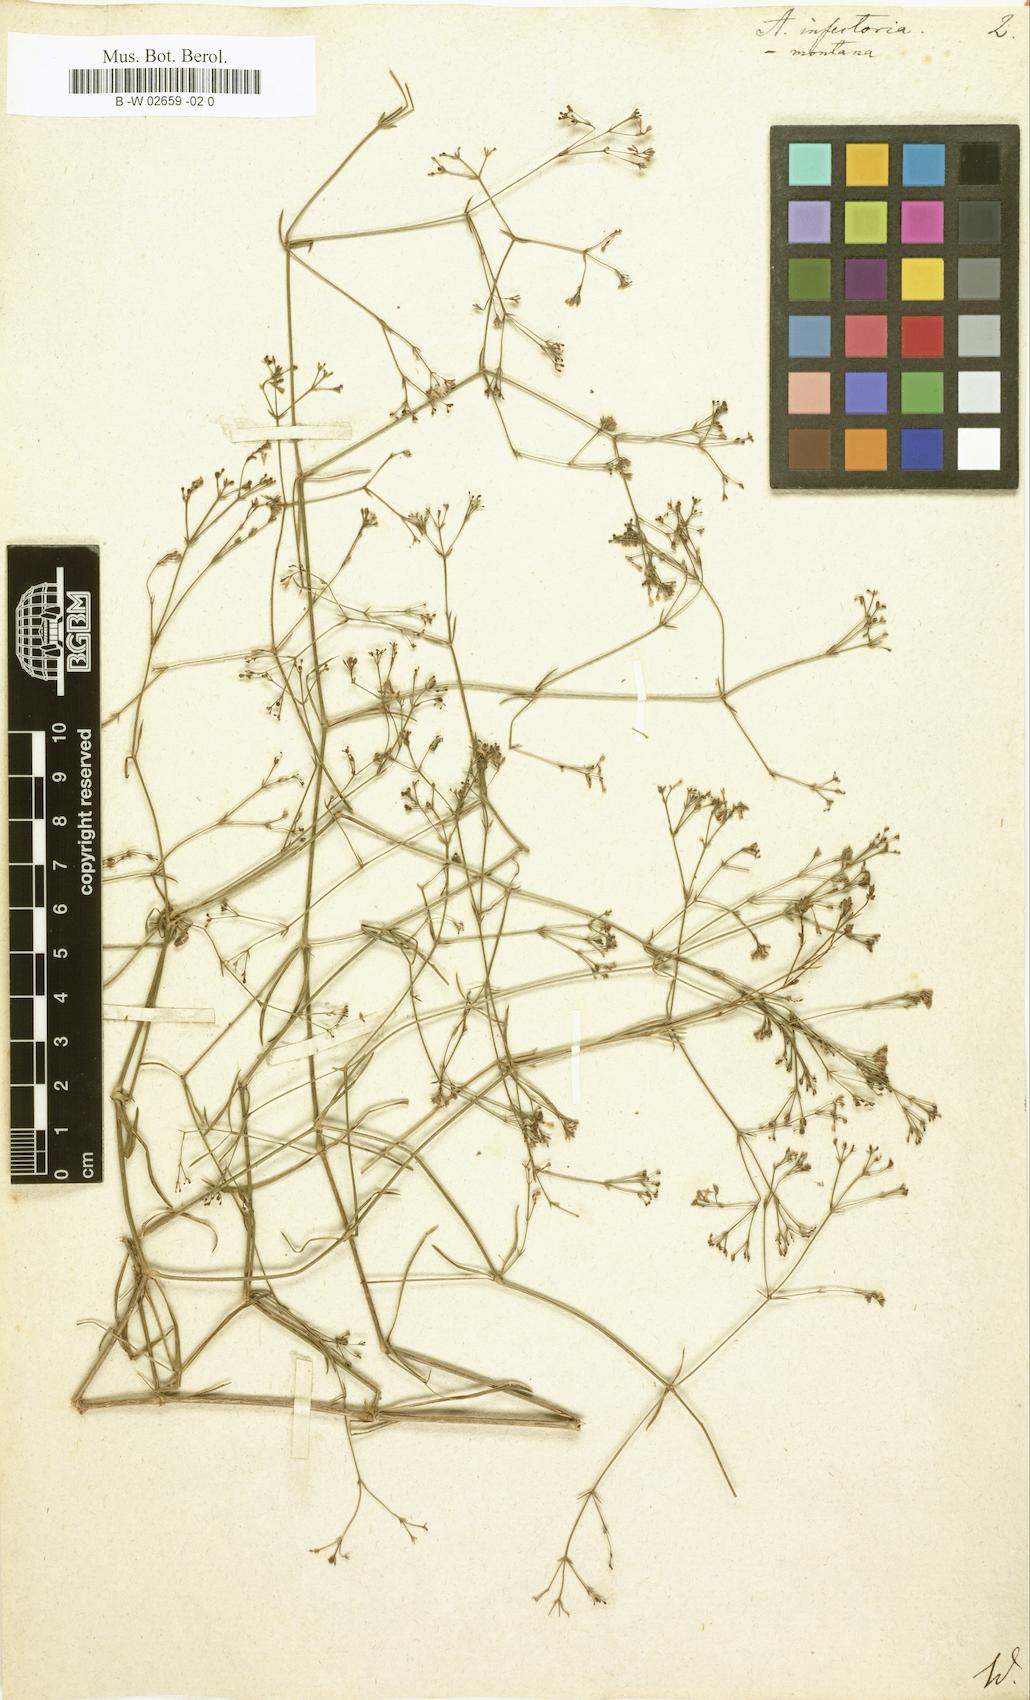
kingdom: Plantae
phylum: Tracheophyta
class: Magnoliopsida
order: Gentianales
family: Rubiaceae
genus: Asperula
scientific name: Asperula
